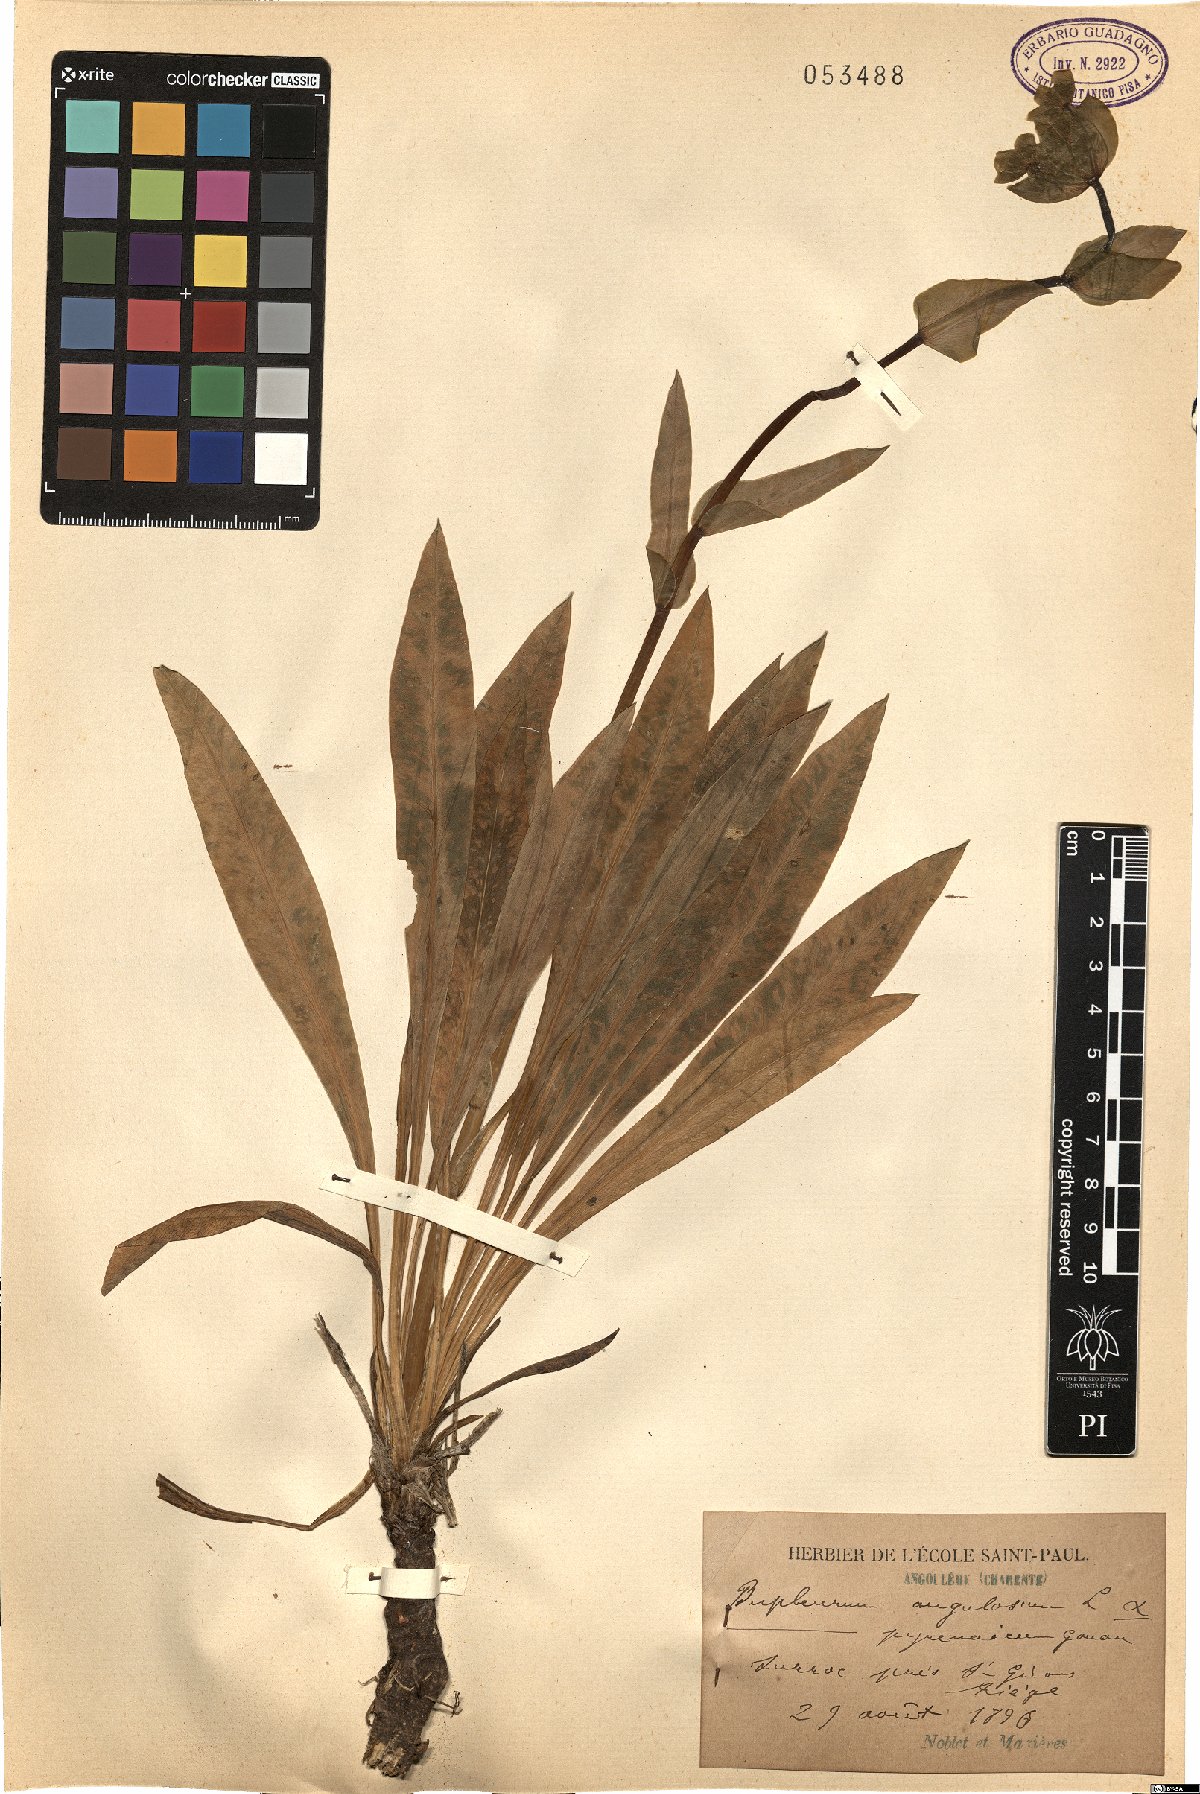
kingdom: Plantae
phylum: Tracheophyta
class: Magnoliopsida
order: Apiales
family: Apiaceae
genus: Bupleurum
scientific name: Bupleurum angulosum
